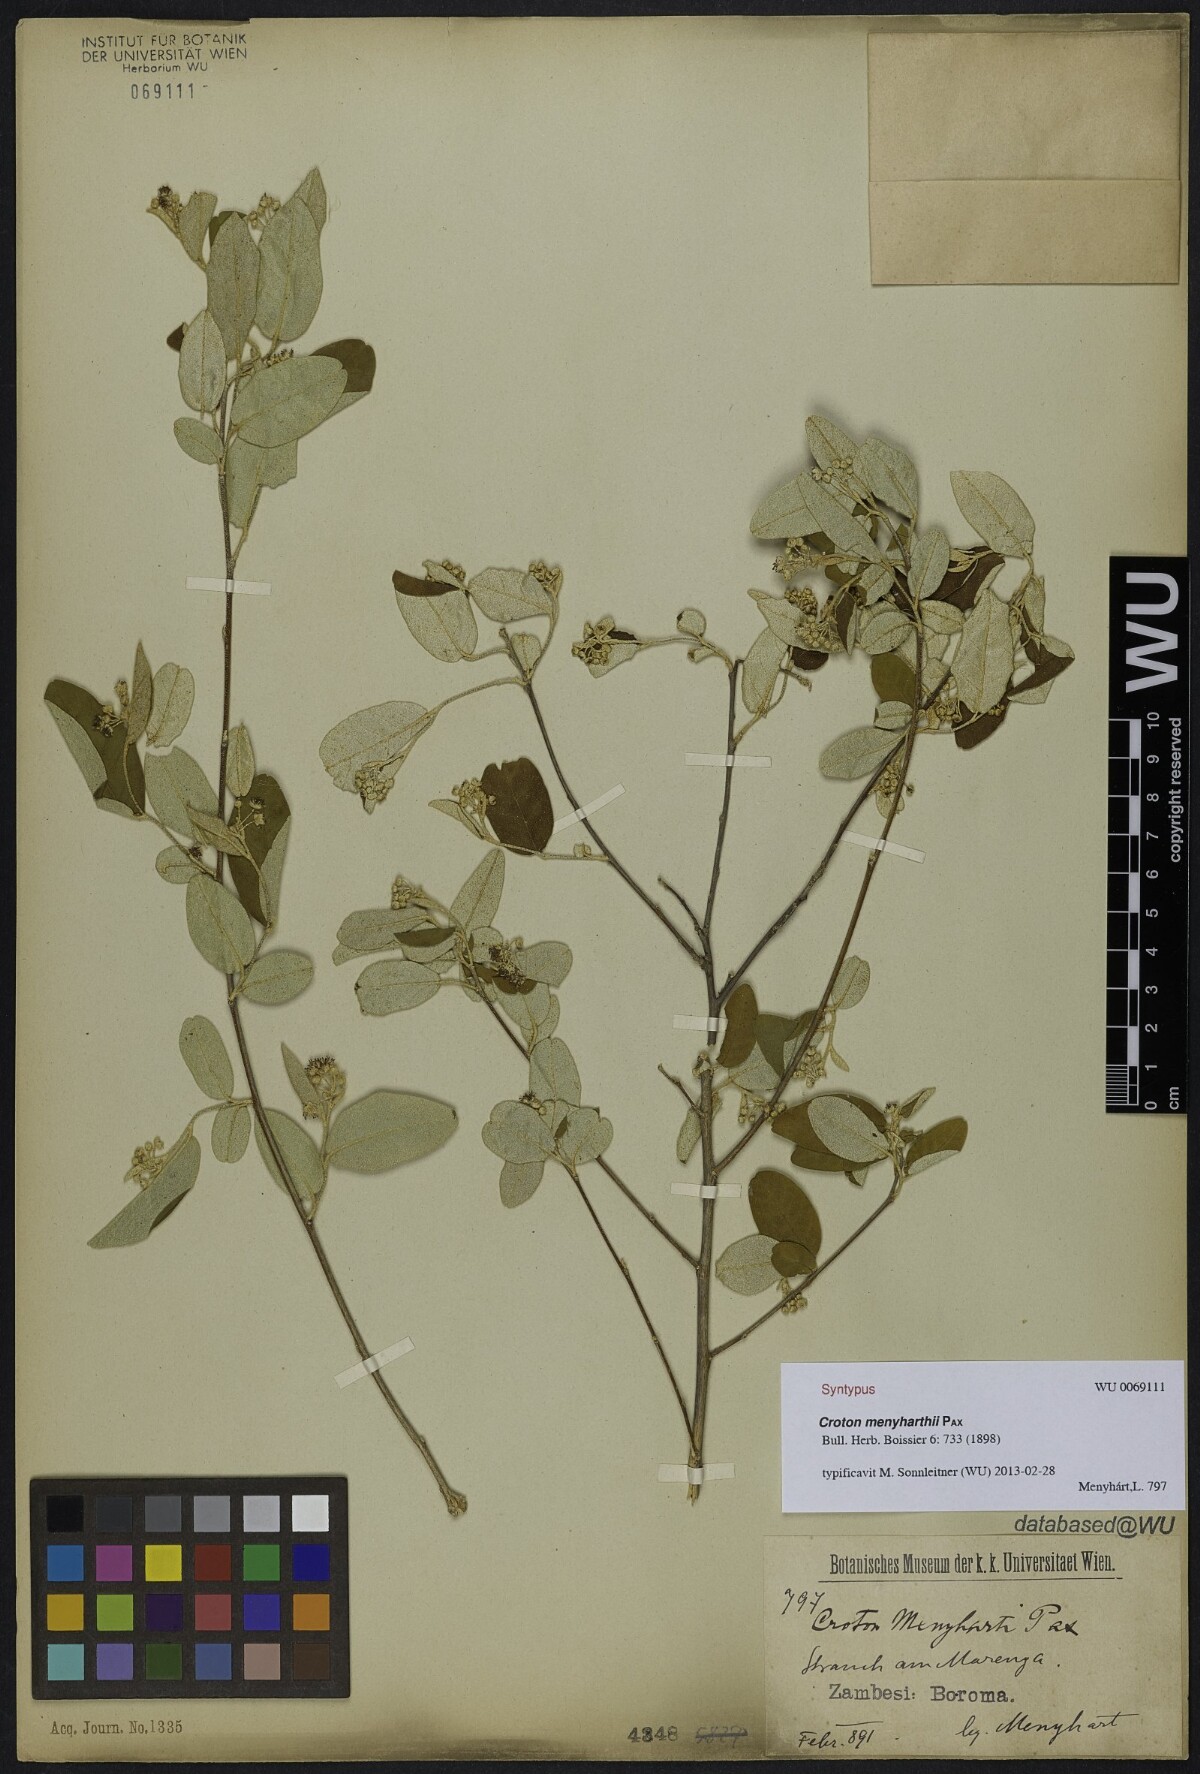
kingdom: Plantae
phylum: Tracheophyta
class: Magnoliopsida
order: Malpighiales
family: Euphorbiaceae
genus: Croton
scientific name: Croton menyharthii
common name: Rough-leaved croton
